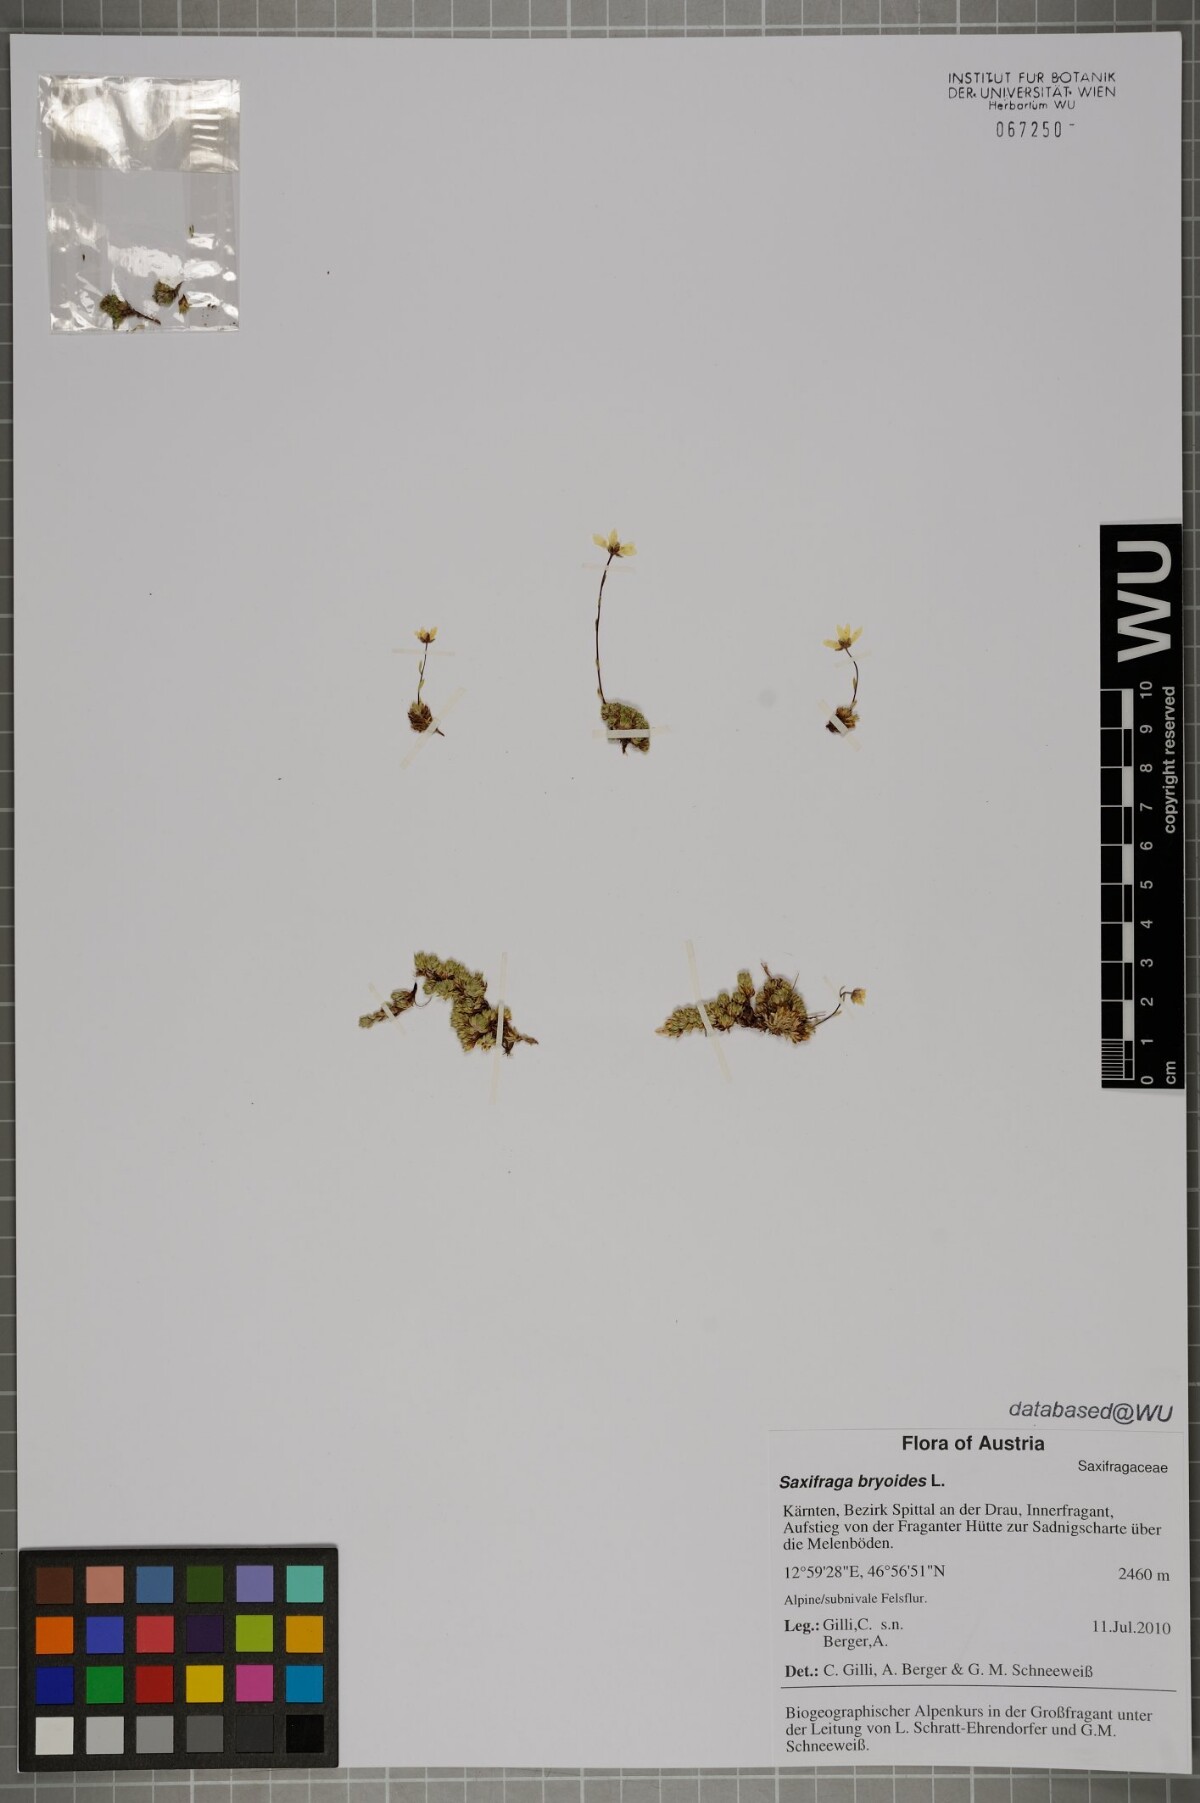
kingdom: Plantae
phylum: Tracheophyta
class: Magnoliopsida
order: Saxifragales
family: Saxifragaceae
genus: Saxifraga
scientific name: Saxifraga bryoides
